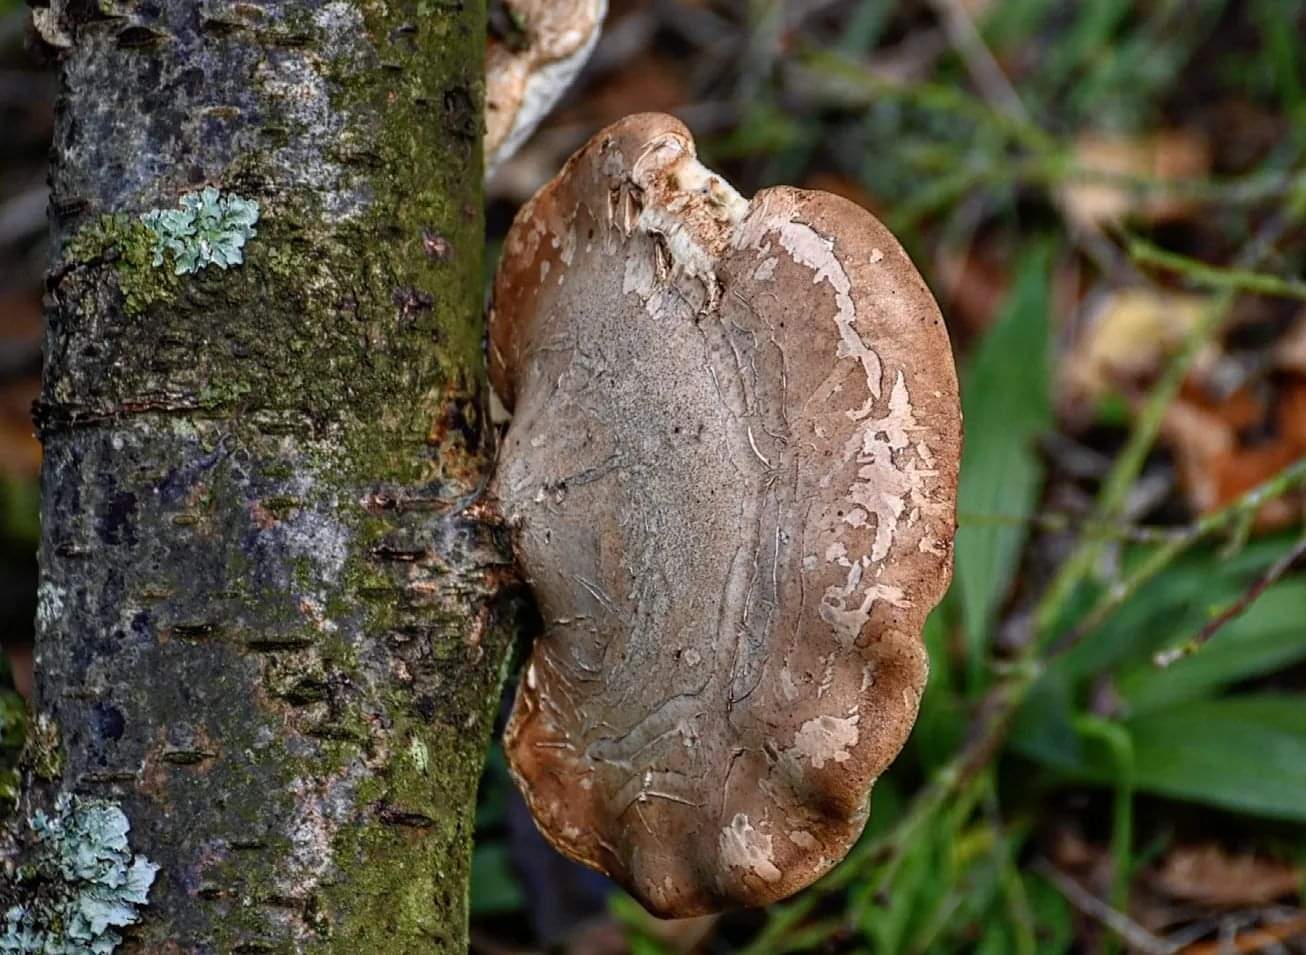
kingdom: Fungi
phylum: Basidiomycota
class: Agaricomycetes
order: Polyporales
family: Fomitopsidaceae
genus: Fomitopsis
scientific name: Fomitopsis betulina
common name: birkeporesvamp
